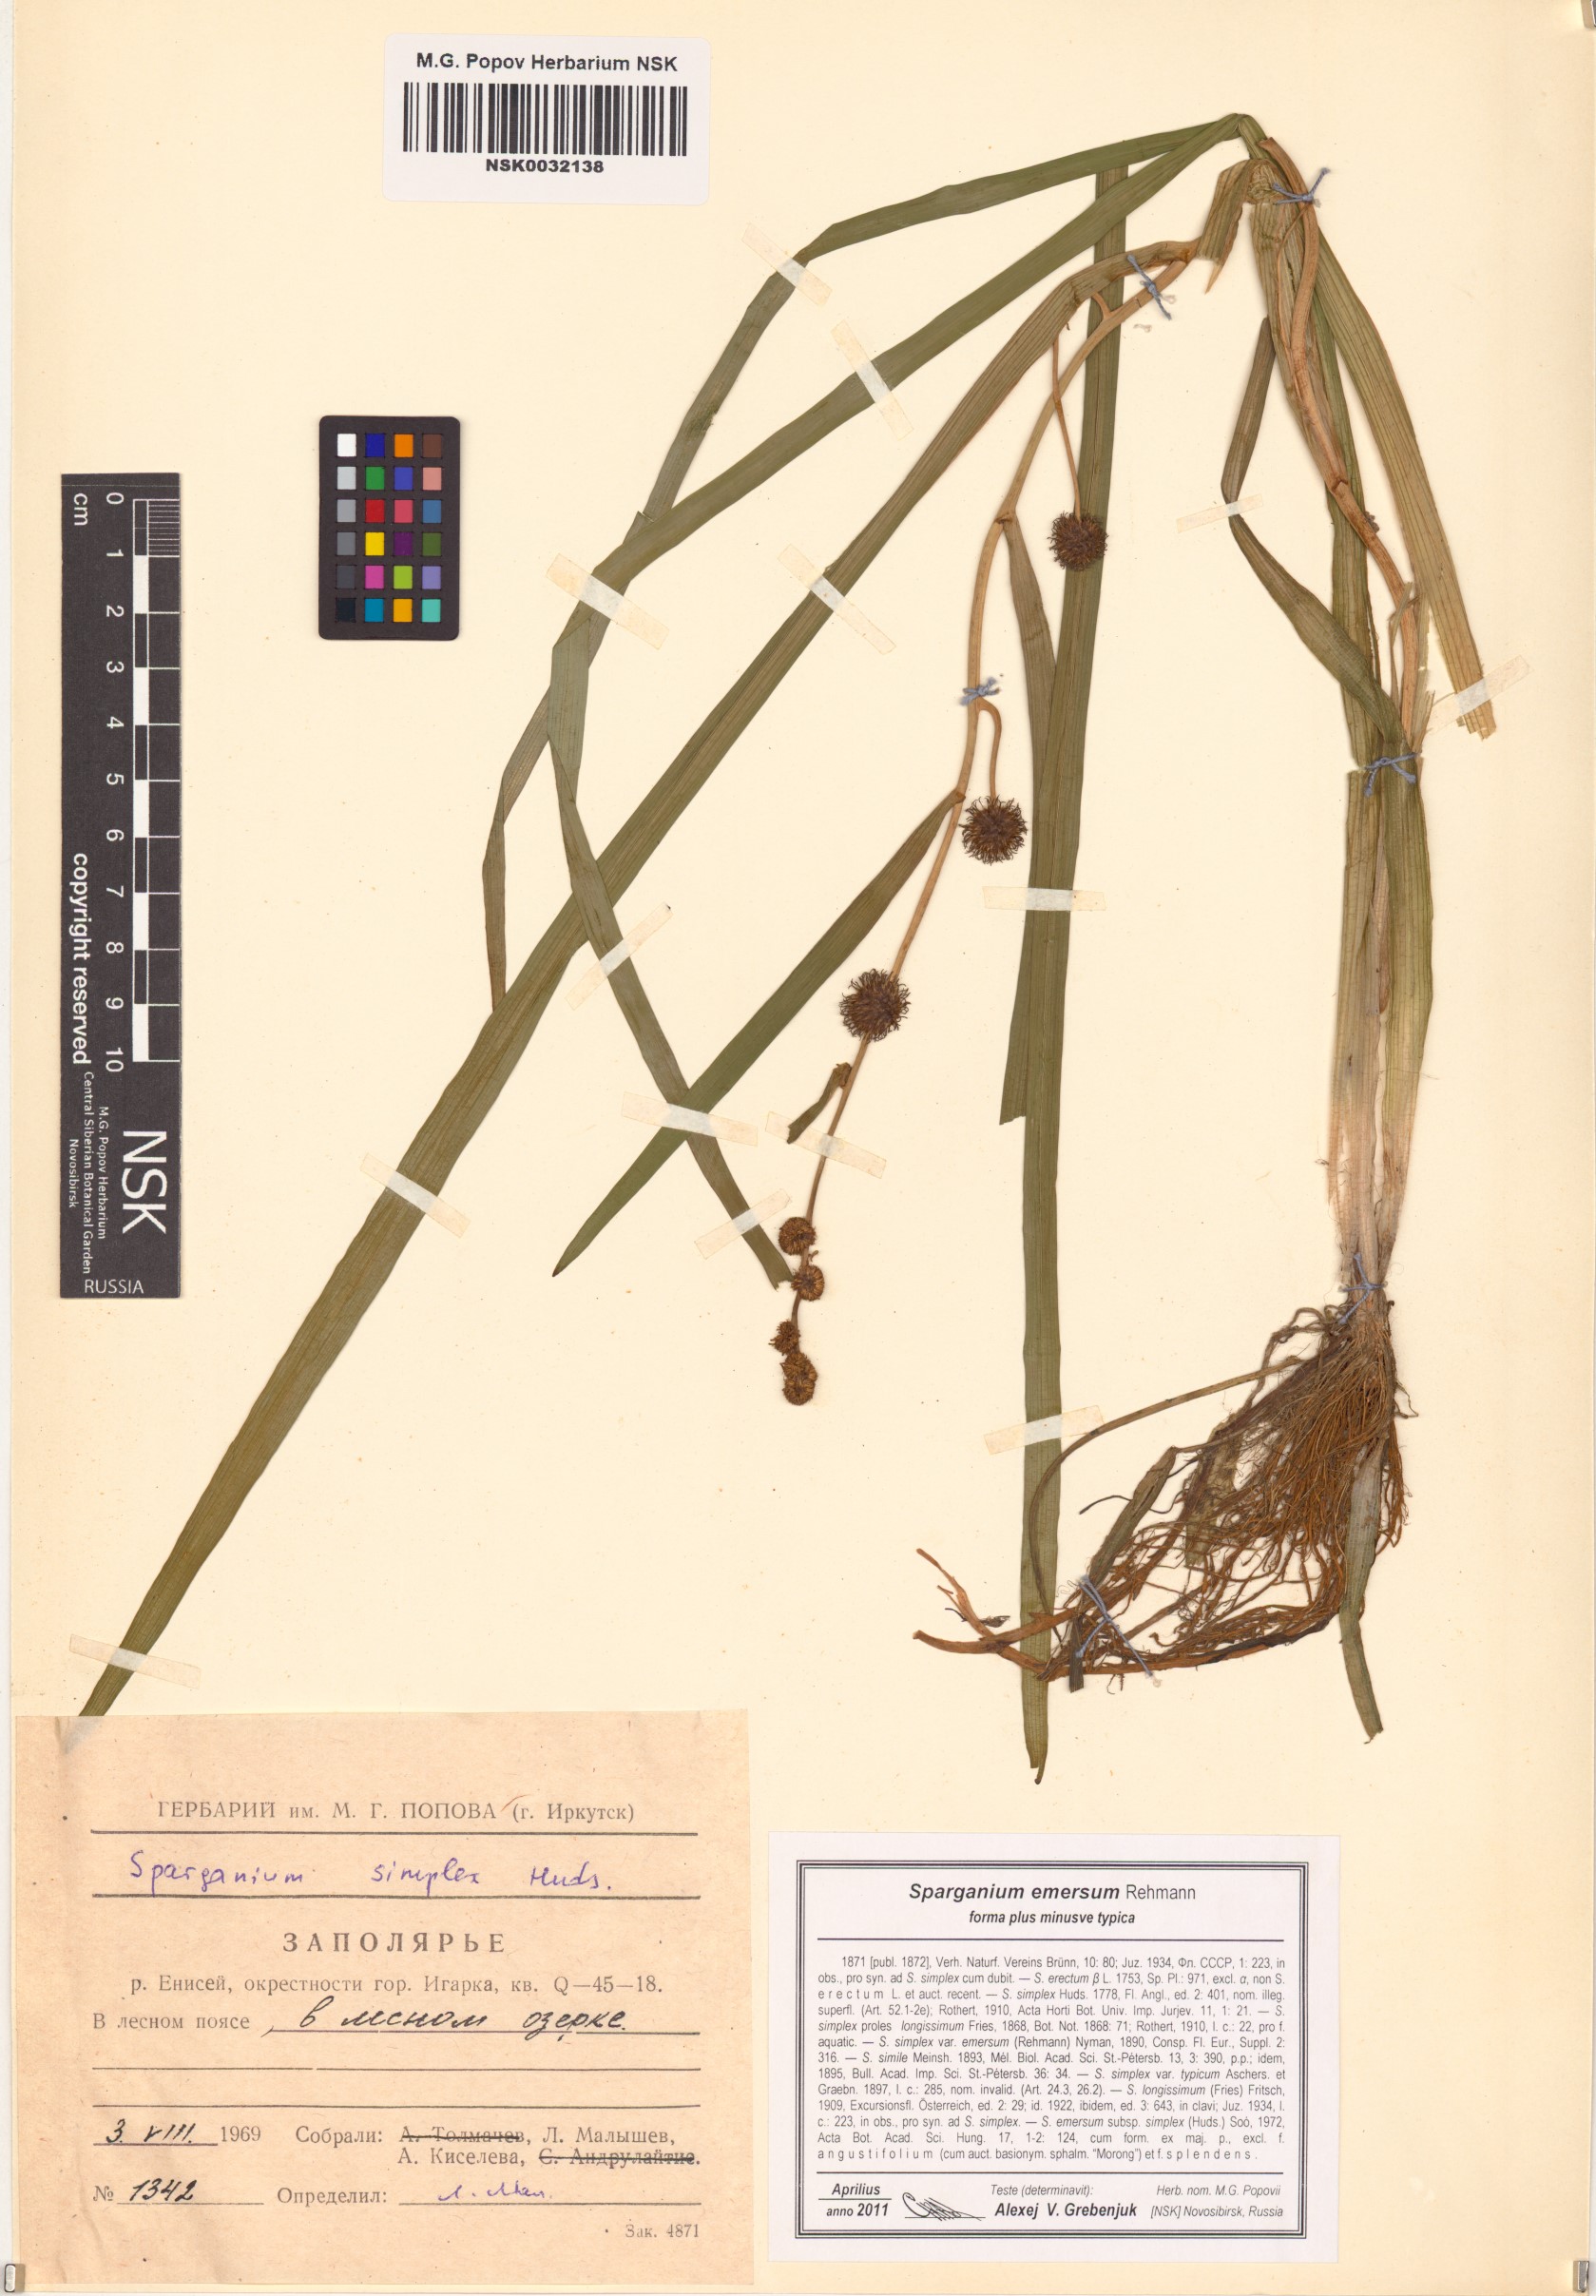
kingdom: Plantae
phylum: Tracheophyta
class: Liliopsida
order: Poales
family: Typhaceae
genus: Sparganium
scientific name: Sparganium emersum
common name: Unbranched bur-reed
